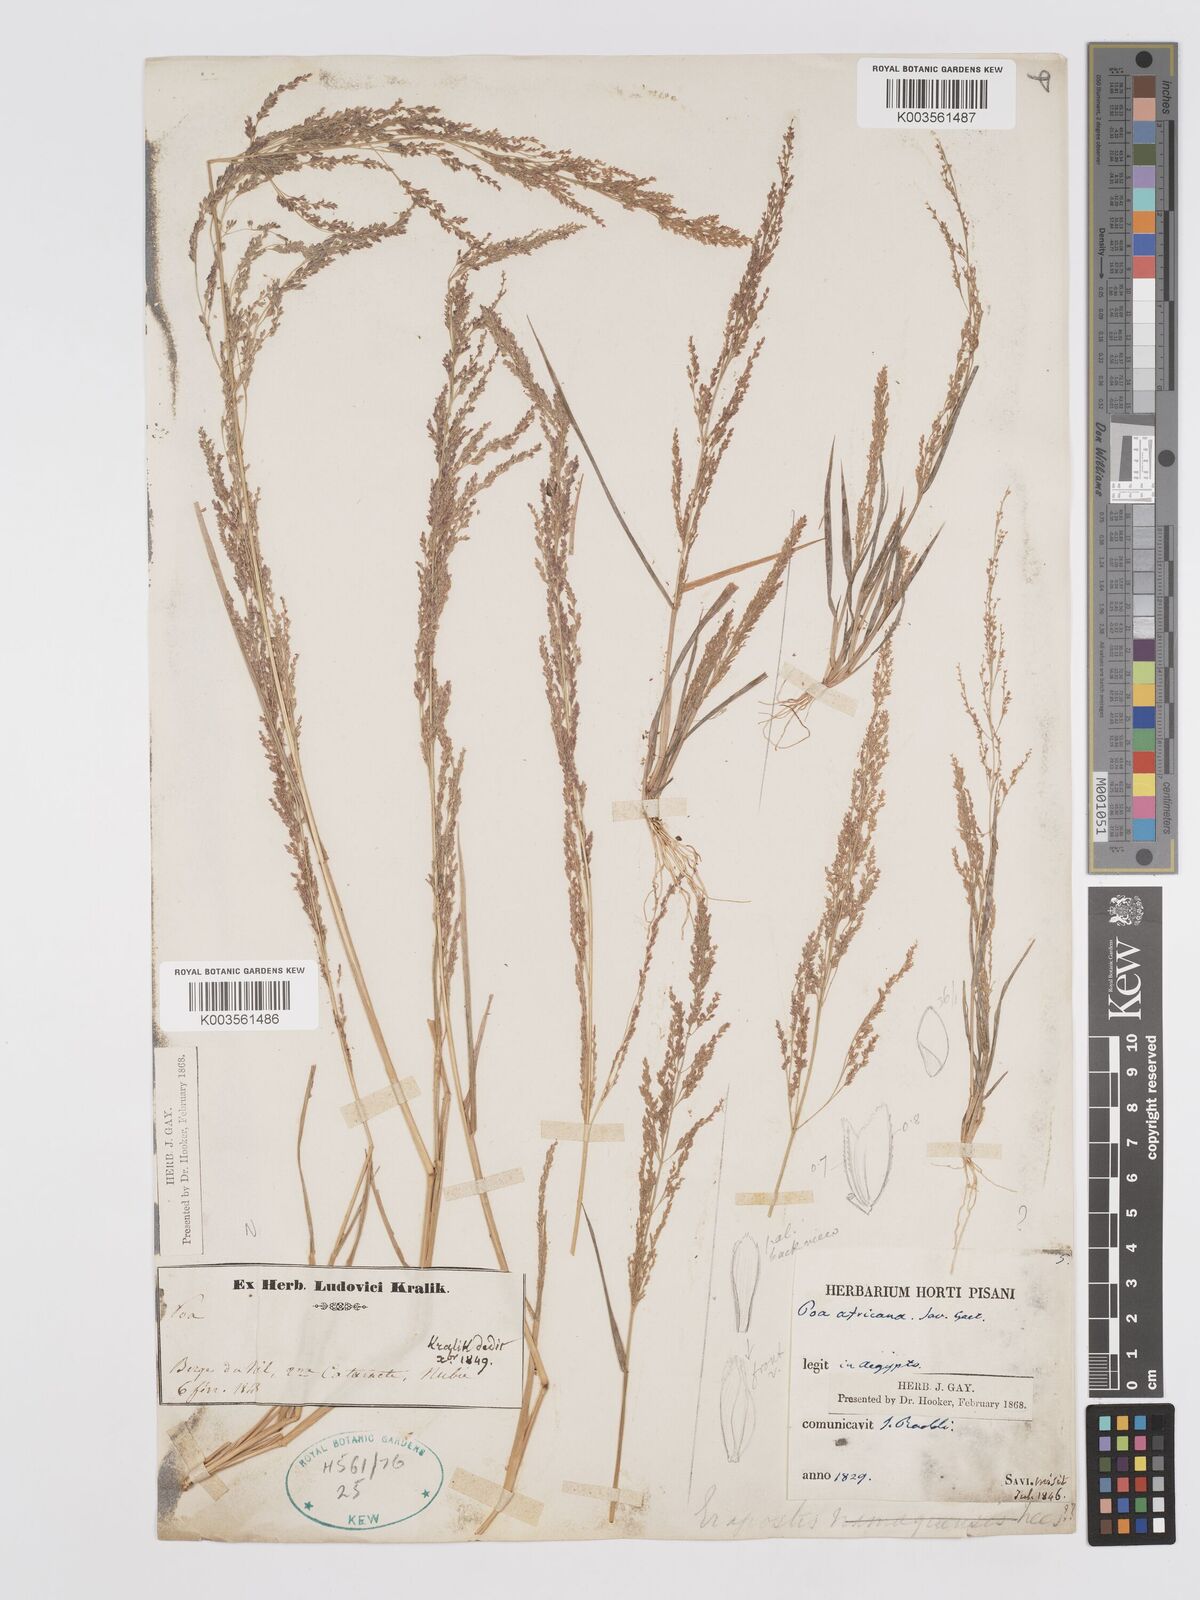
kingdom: Plantae
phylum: Tracheophyta
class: Liliopsida
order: Poales
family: Poaceae
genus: Eragrostis
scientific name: Eragrostis japonica
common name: Pond lovegrass
